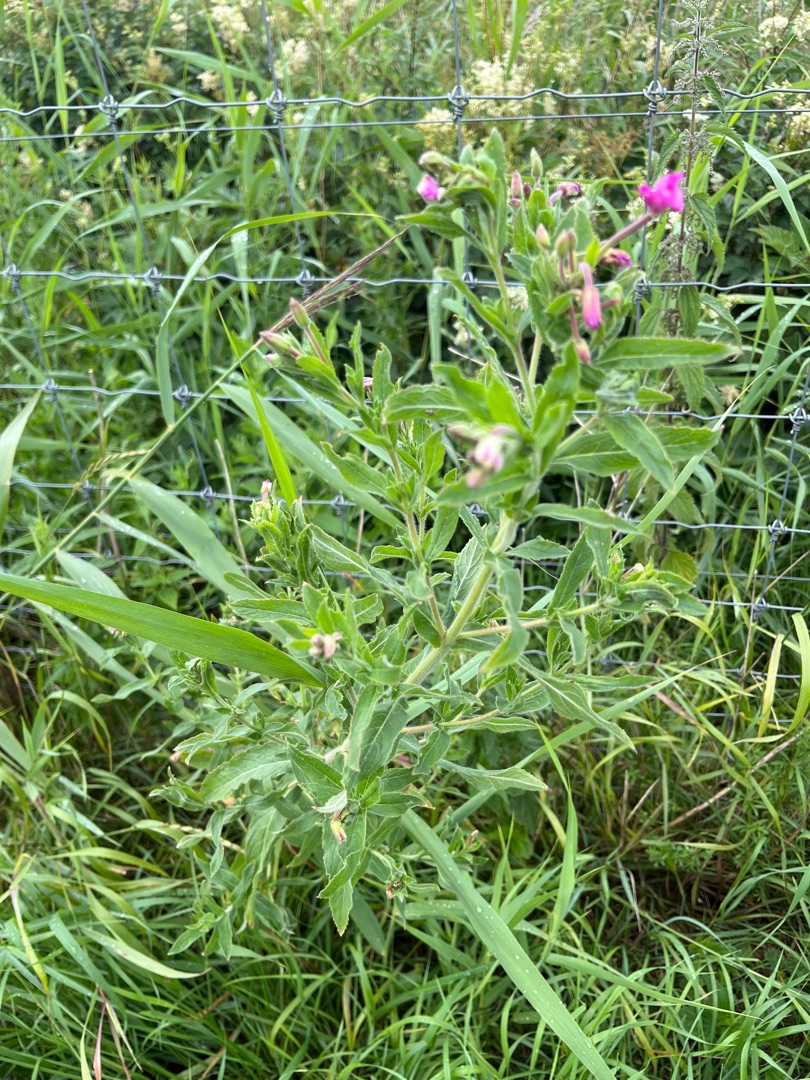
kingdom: Plantae
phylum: Tracheophyta
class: Magnoliopsida
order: Myrtales
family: Onagraceae
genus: Epilobium
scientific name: Epilobium hirsutum
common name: Lådden dueurt
